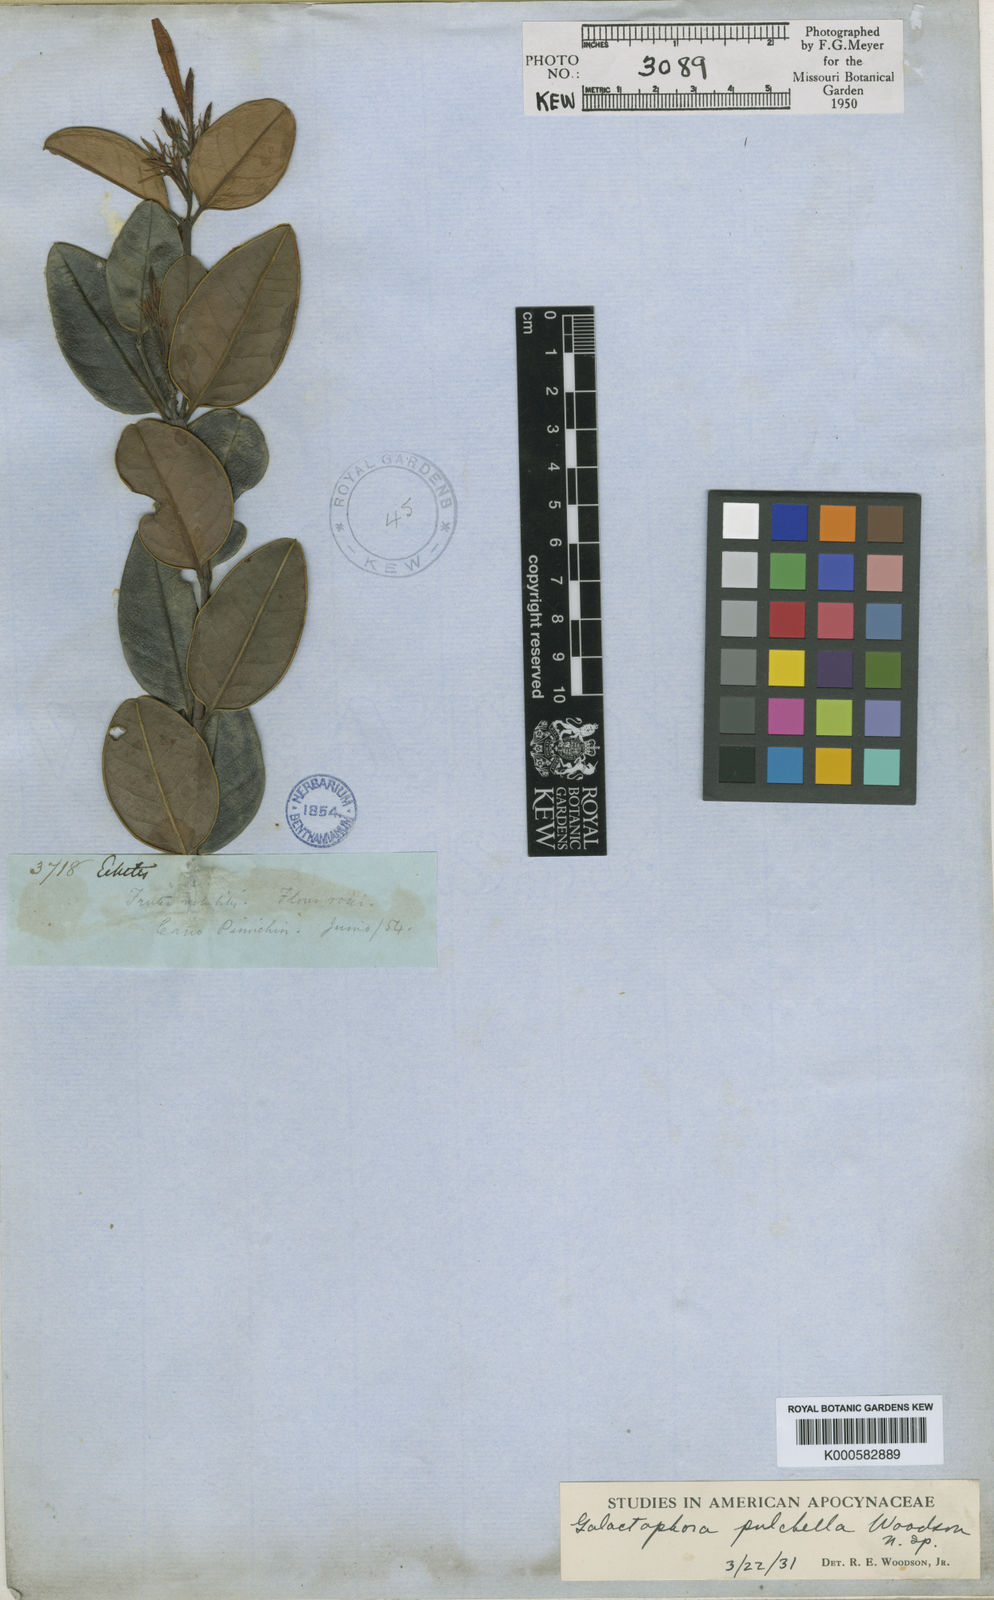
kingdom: Plantae
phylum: Tracheophyta
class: Magnoliopsida
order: Gentianales
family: Apocynaceae
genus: Mandevilla
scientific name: Mandevilla
